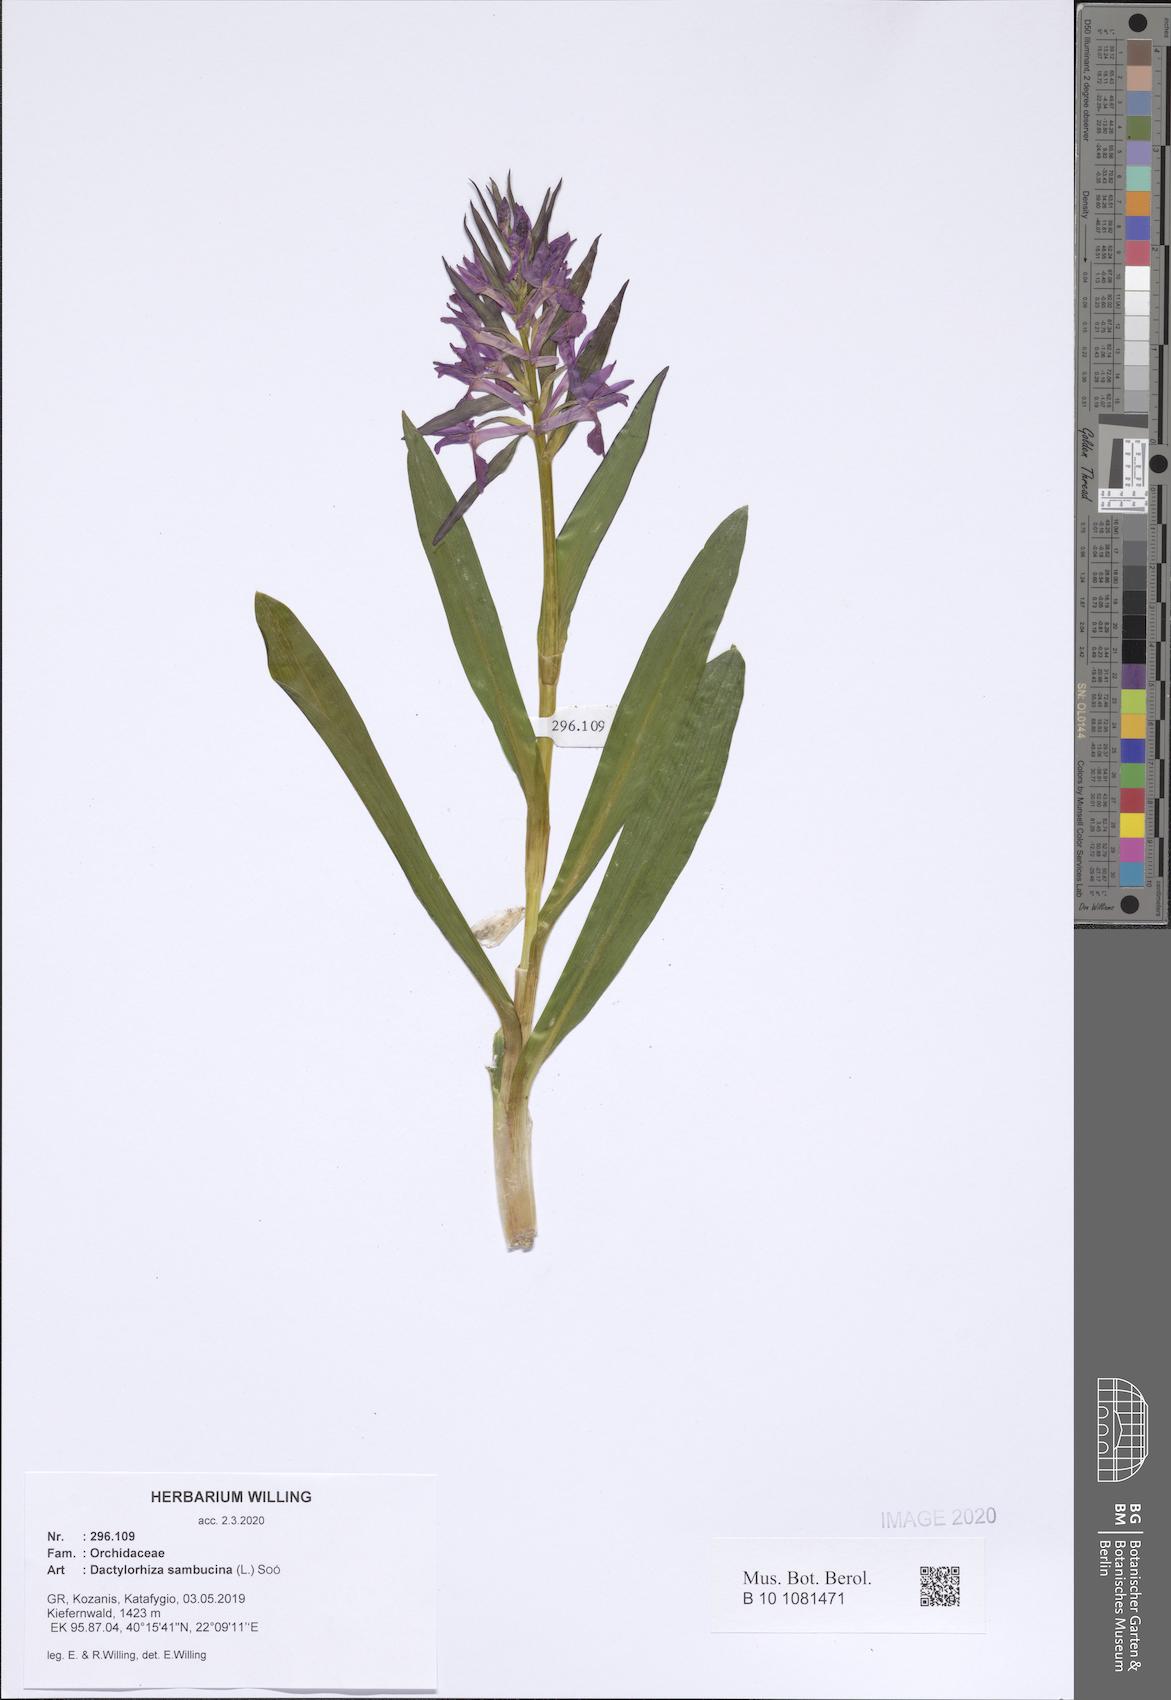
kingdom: Plantae
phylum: Tracheophyta
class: Liliopsida
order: Asparagales
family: Orchidaceae
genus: Dactylorhiza
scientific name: Dactylorhiza sambucina
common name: Elder-flowered orchid
